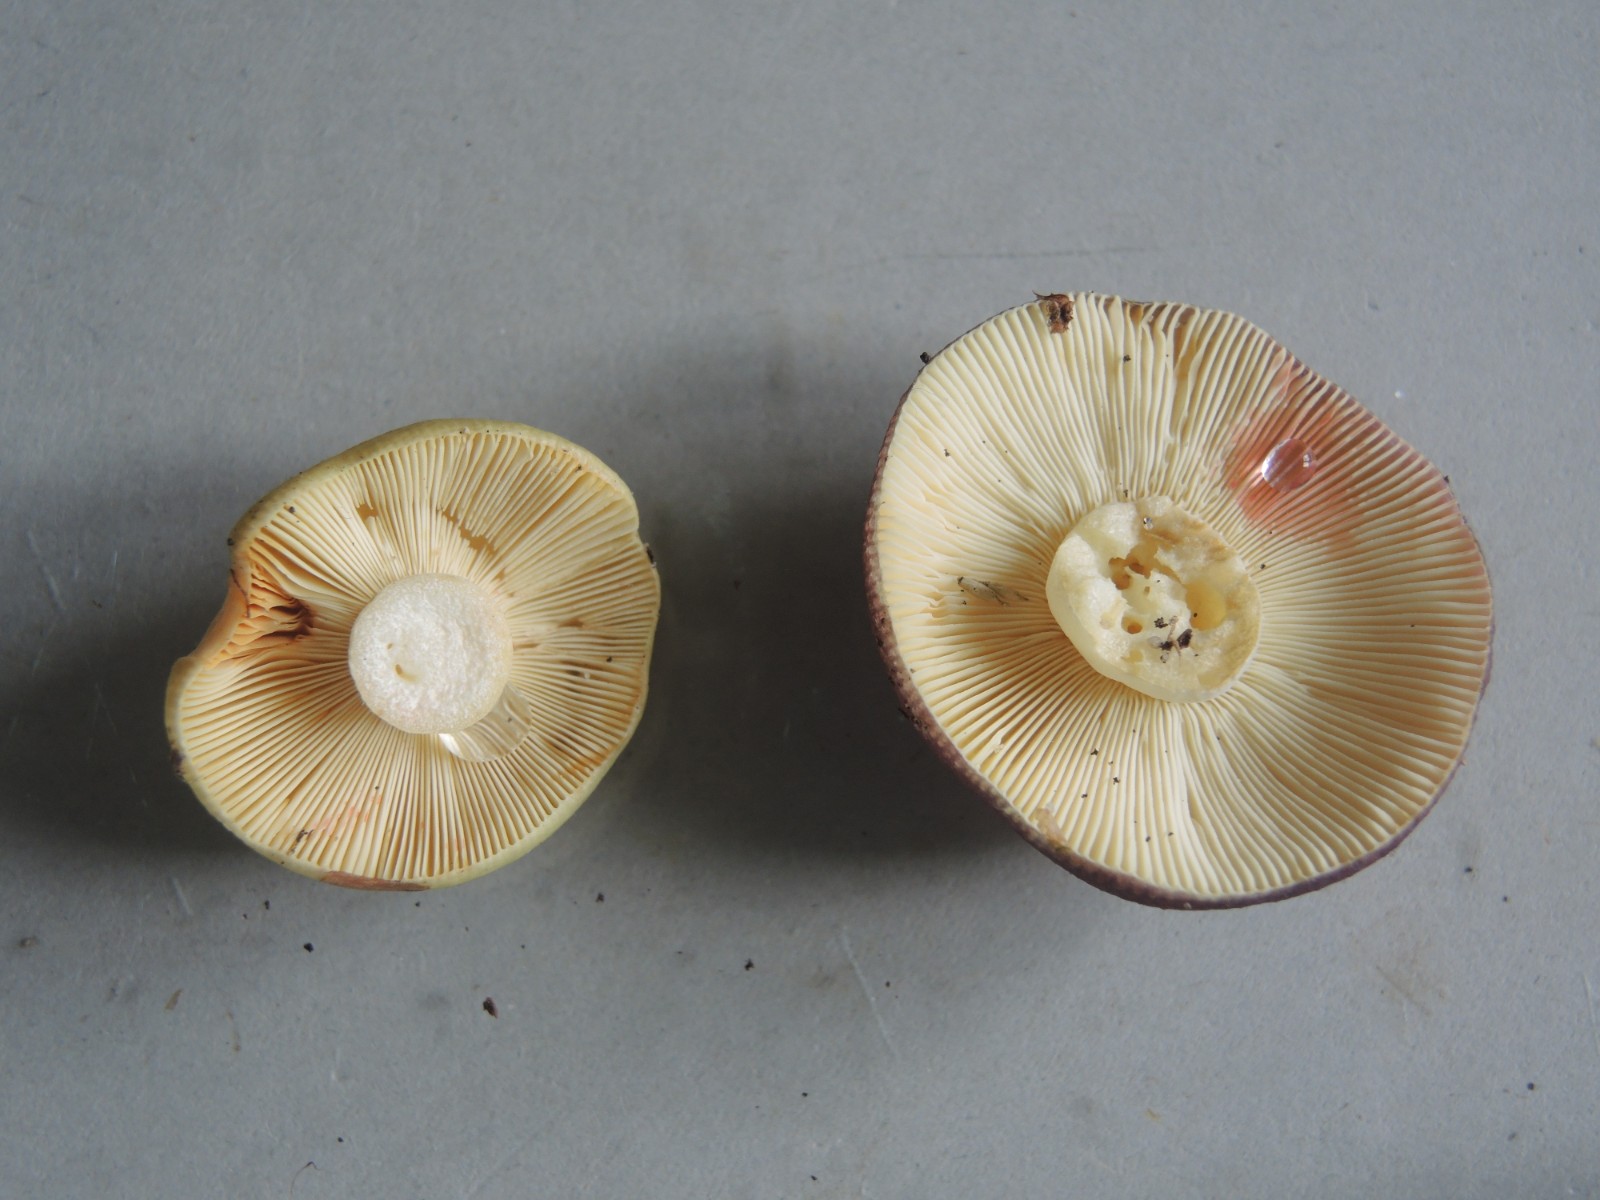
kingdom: Fungi
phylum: Basidiomycota
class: Agaricomycetes
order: Russulales
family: Russulaceae
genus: Russula
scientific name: Russula sardonia
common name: citronbladet skørhat
